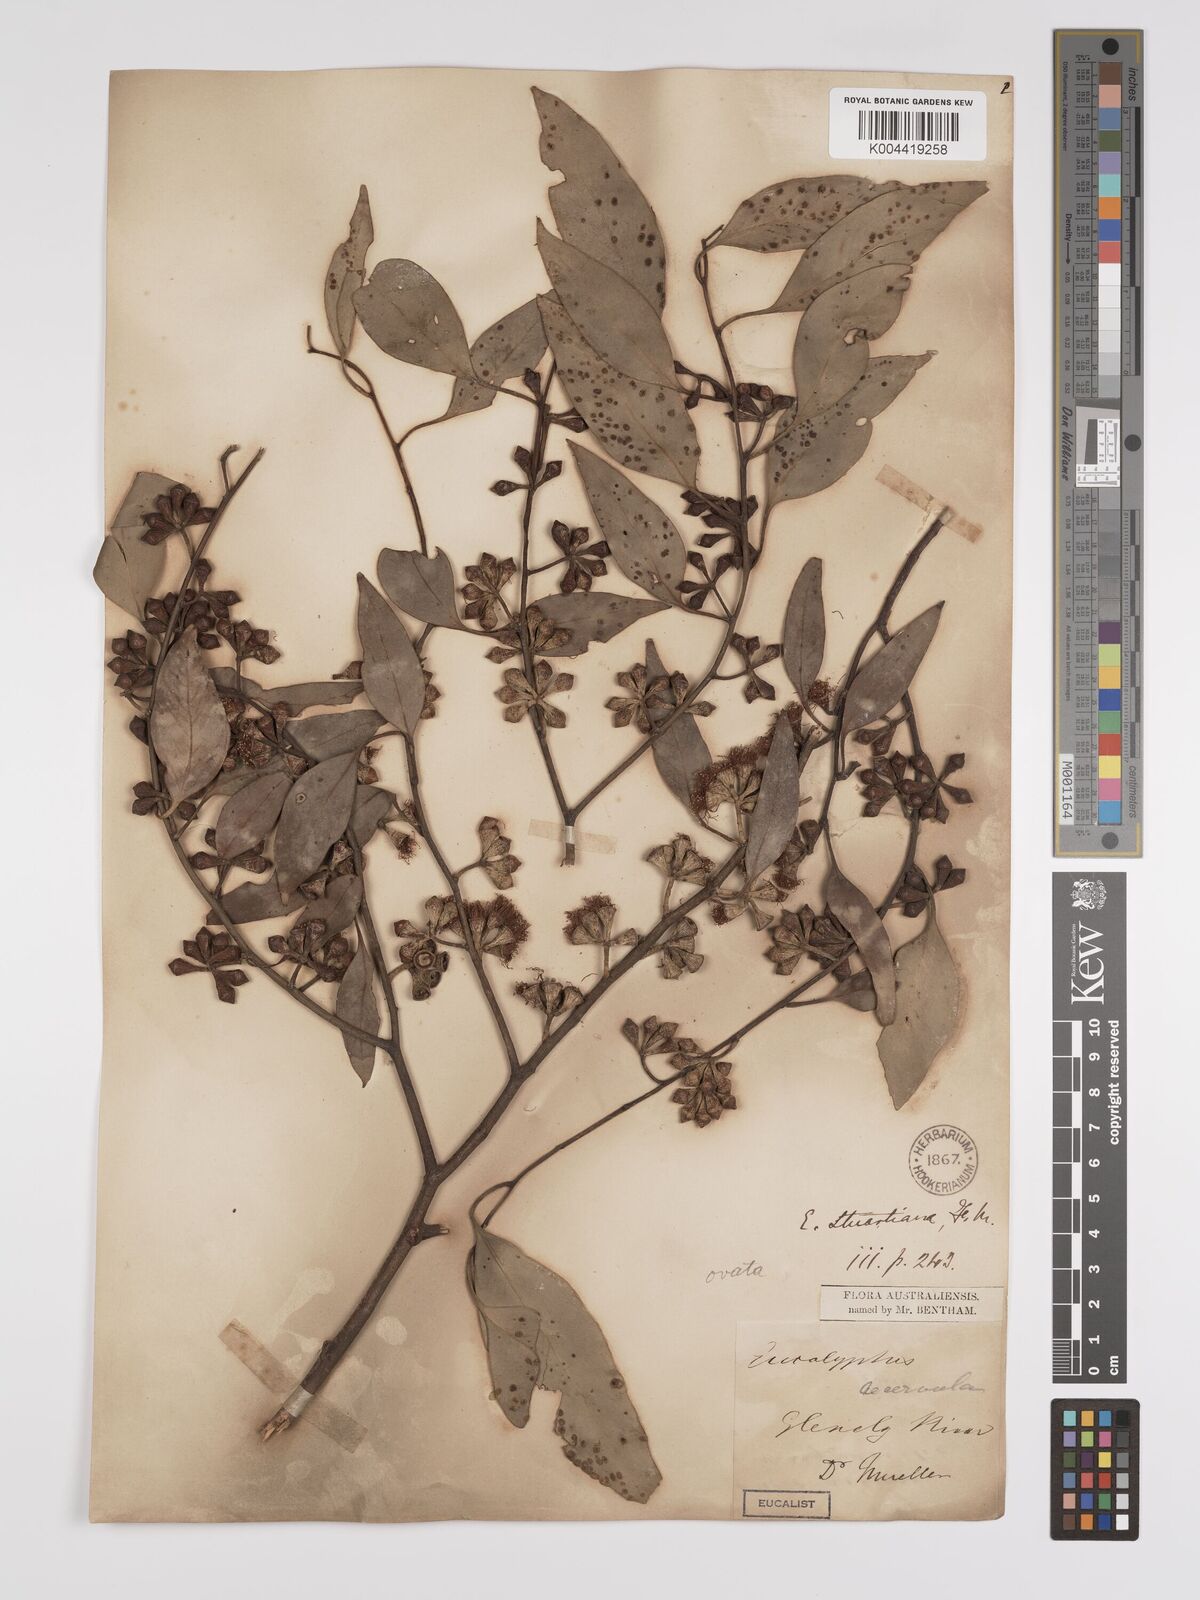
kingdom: Plantae
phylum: Tracheophyta
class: Magnoliopsida
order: Myrtales
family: Myrtaceae
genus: Eucalyptus
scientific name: Eucalyptus ovata
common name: Black-gum
